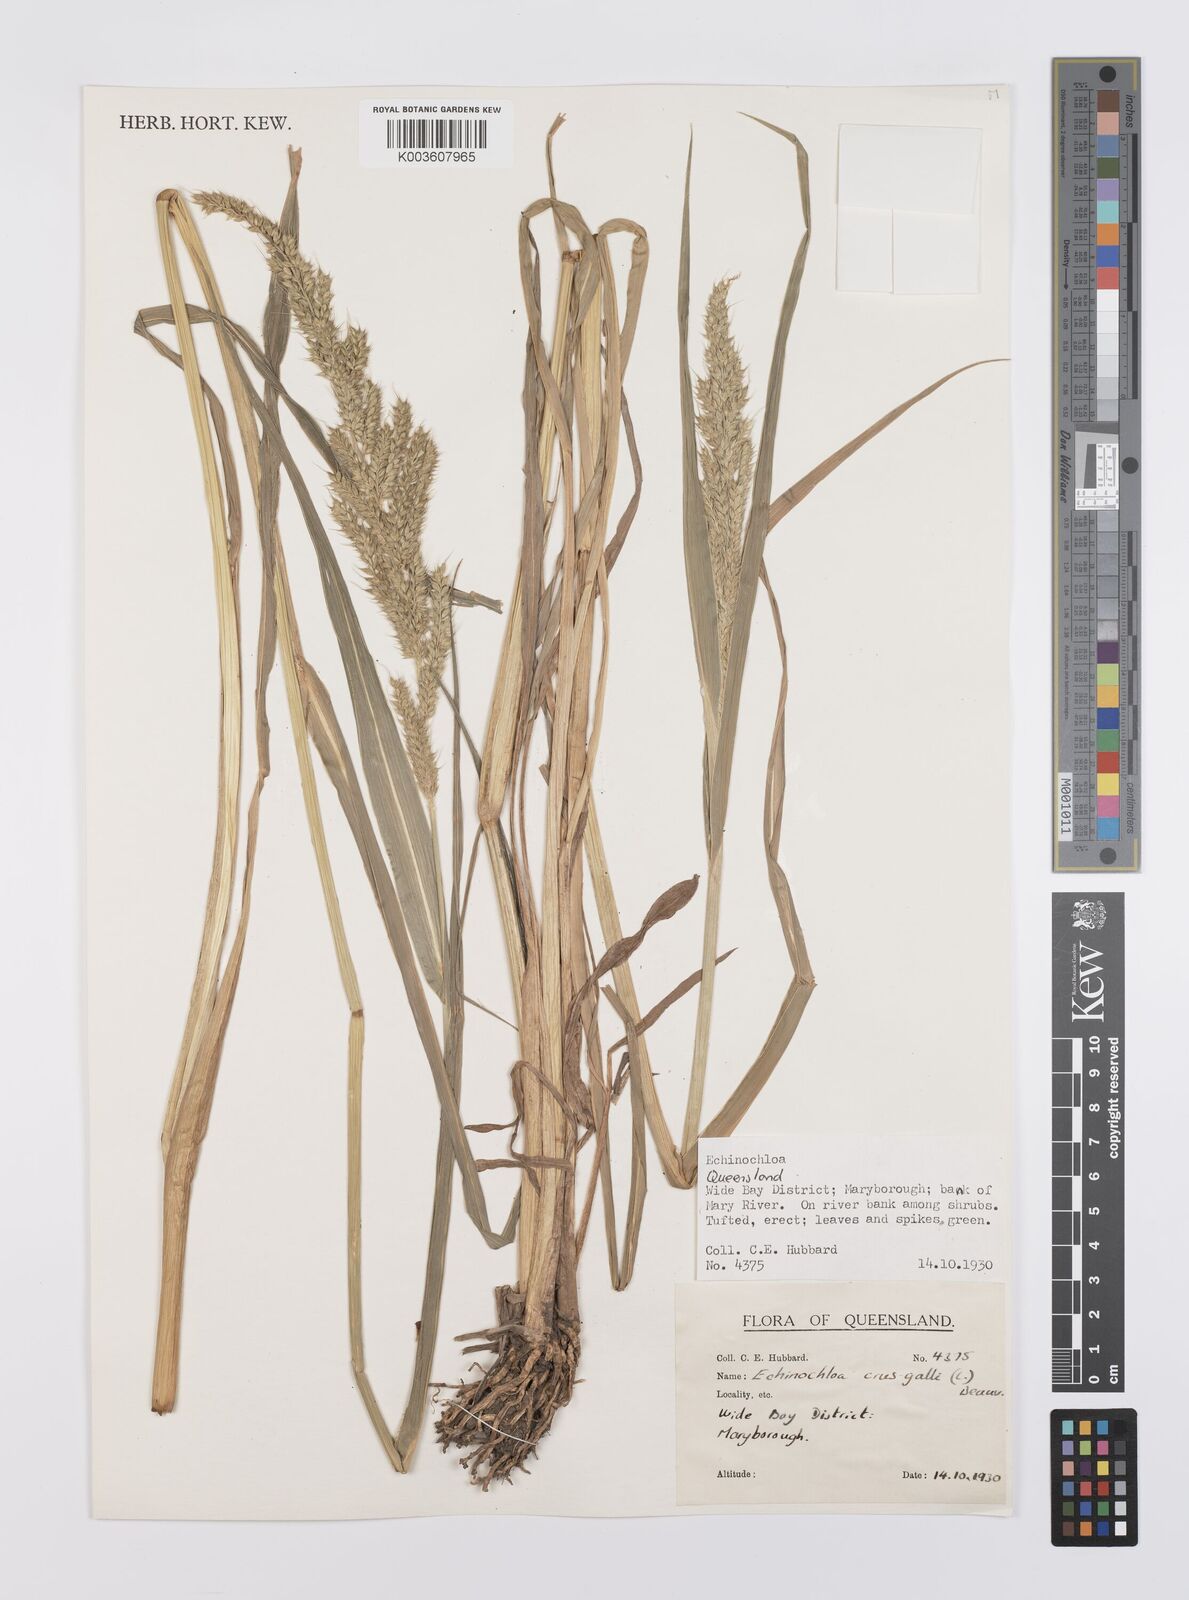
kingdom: Plantae
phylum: Tracheophyta
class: Liliopsida
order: Poales
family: Poaceae
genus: Echinochloa
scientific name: Echinochloa crus-galli
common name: Cockspur
